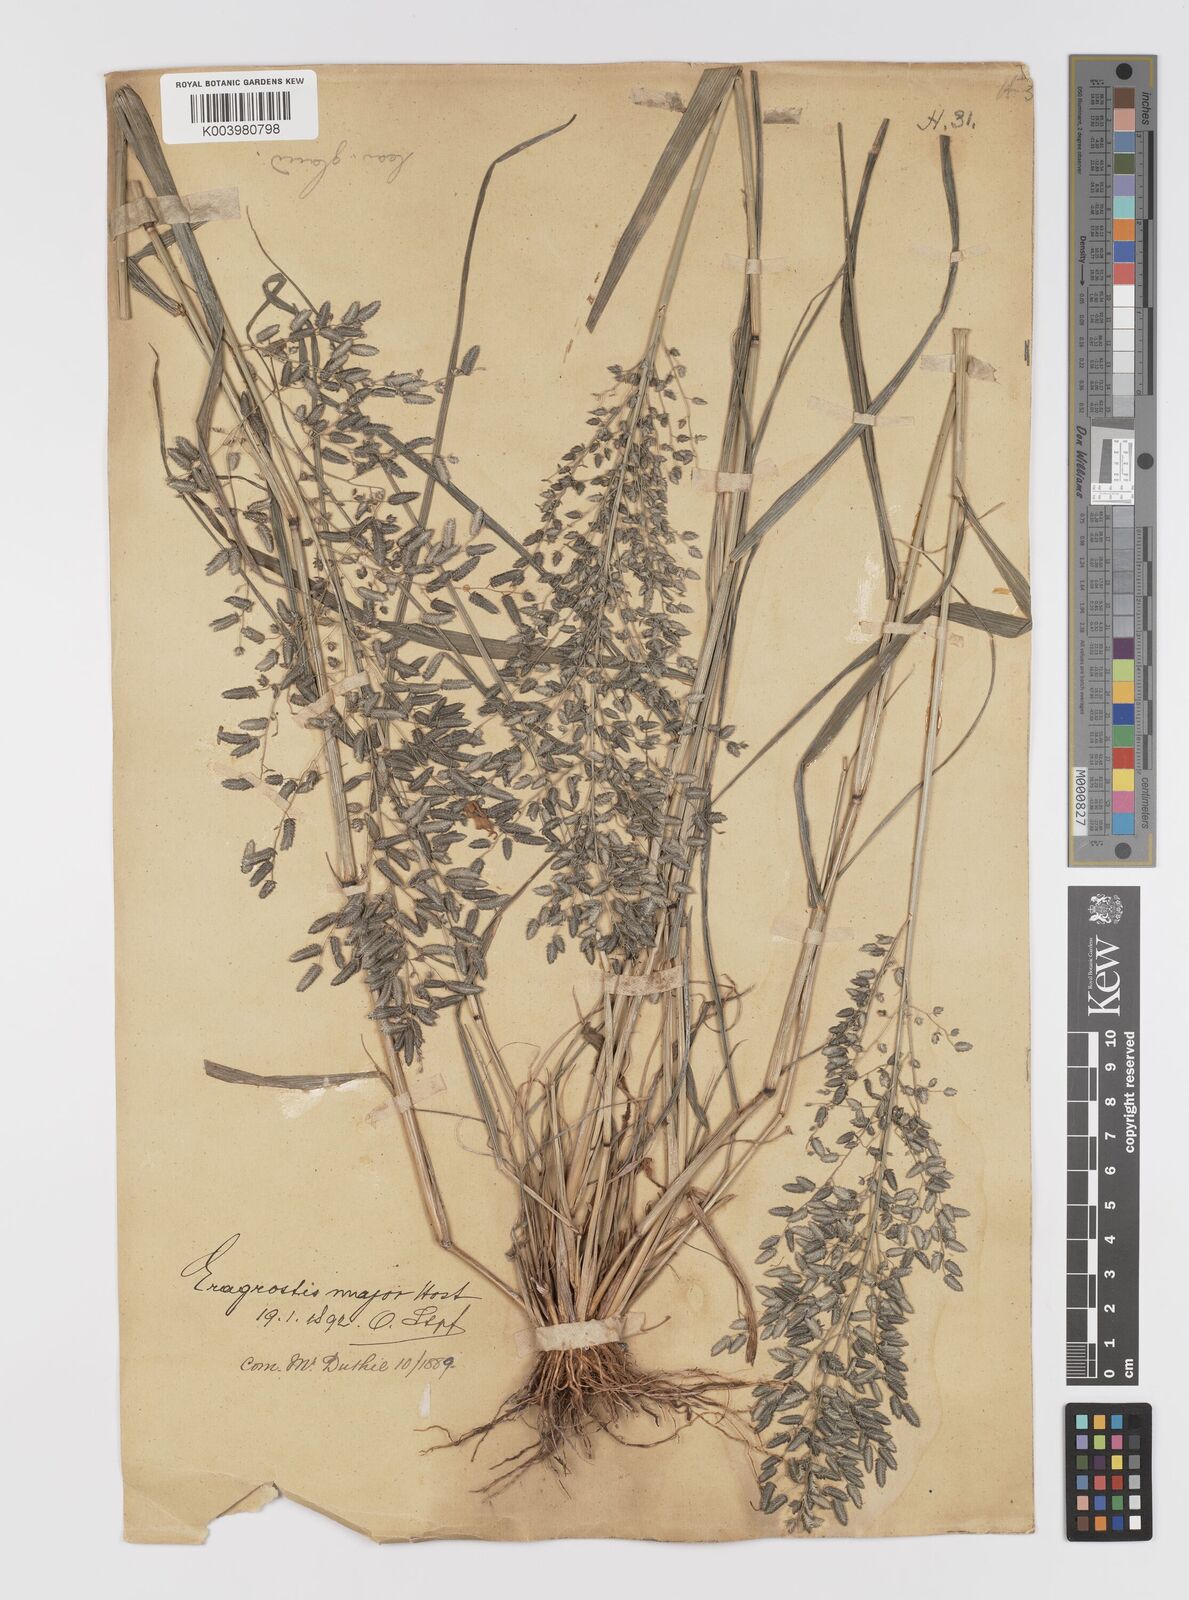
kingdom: Plantae
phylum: Tracheophyta
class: Liliopsida
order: Poales
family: Poaceae
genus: Eragrostis
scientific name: Eragrostis cilianensis
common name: Stinkgrass
